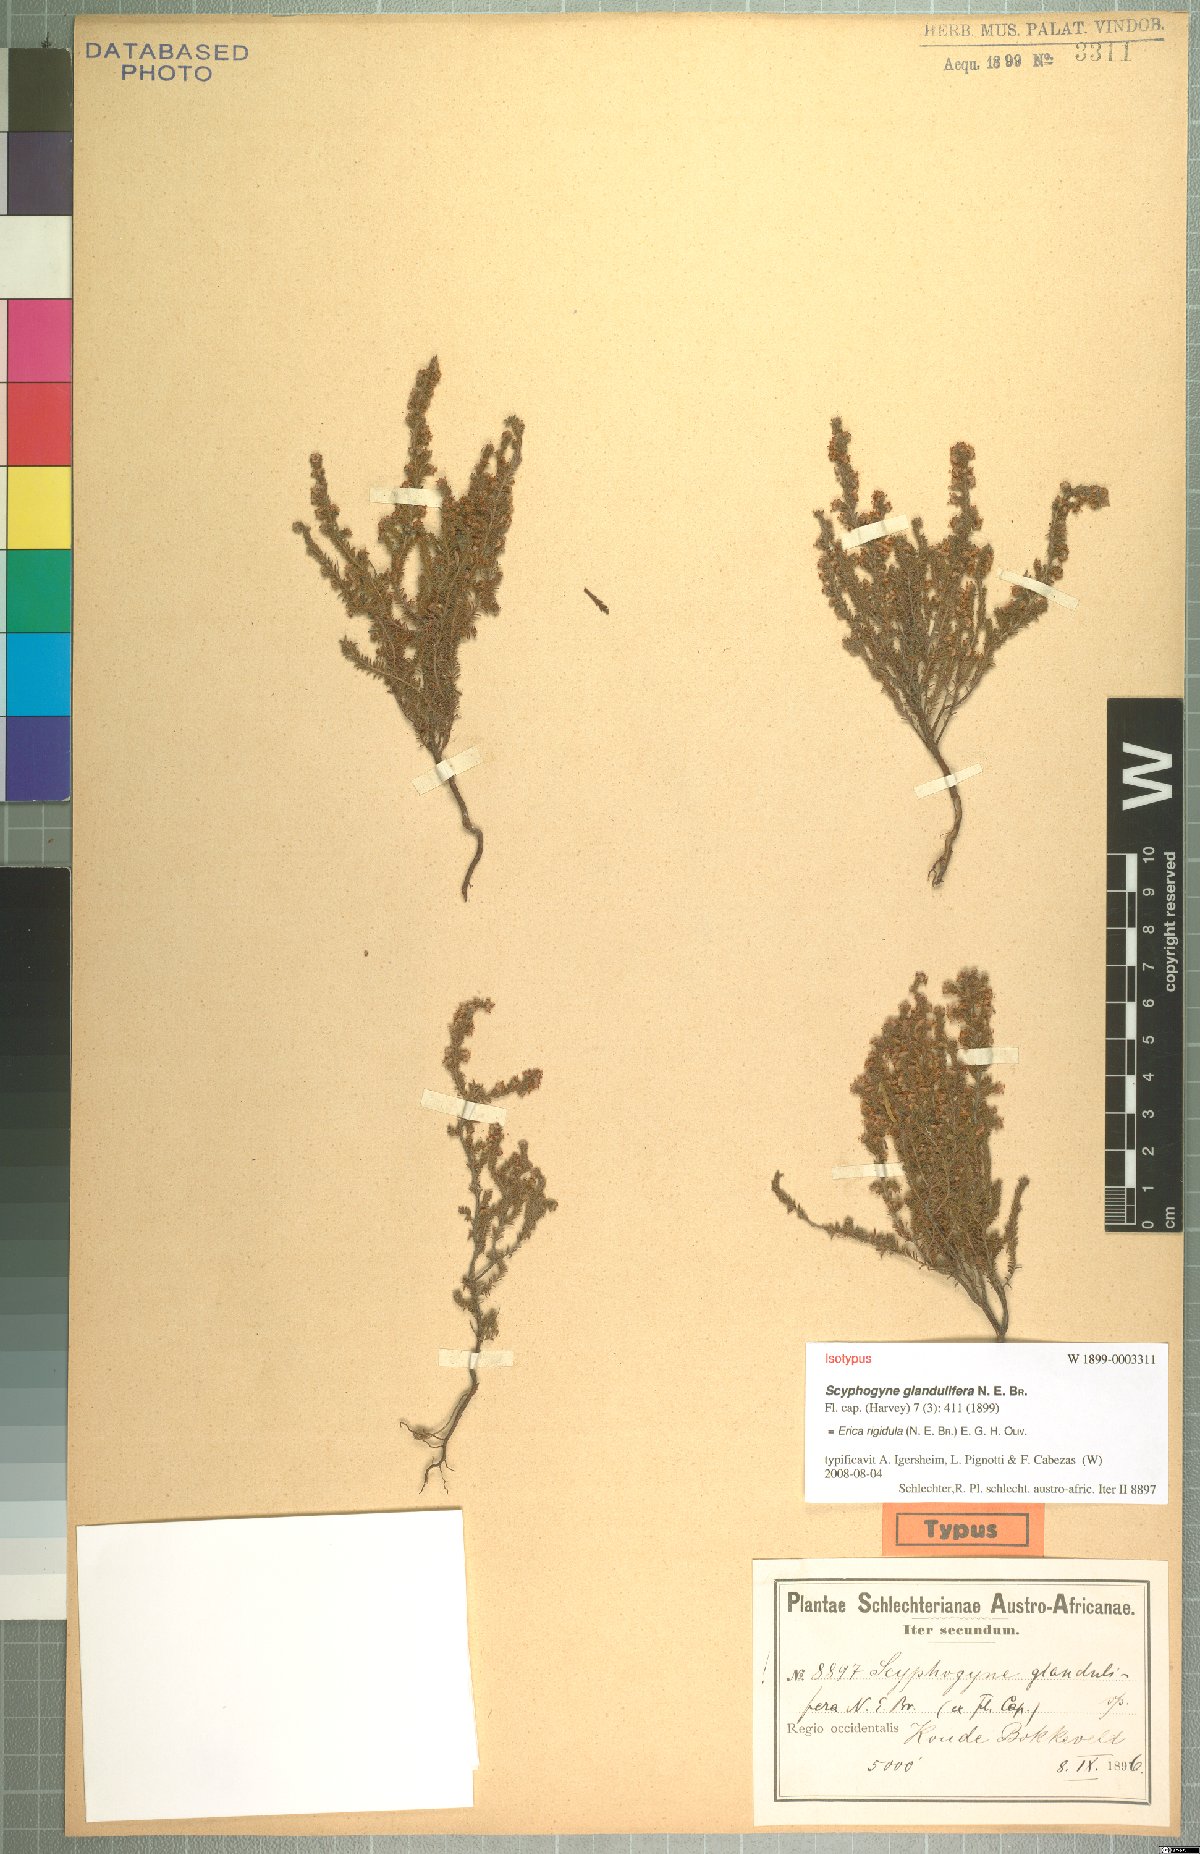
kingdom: Plantae
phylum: Tracheophyta
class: Magnoliopsida
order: Ericales
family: Ericaceae
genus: Erica
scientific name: Erica rigidula
